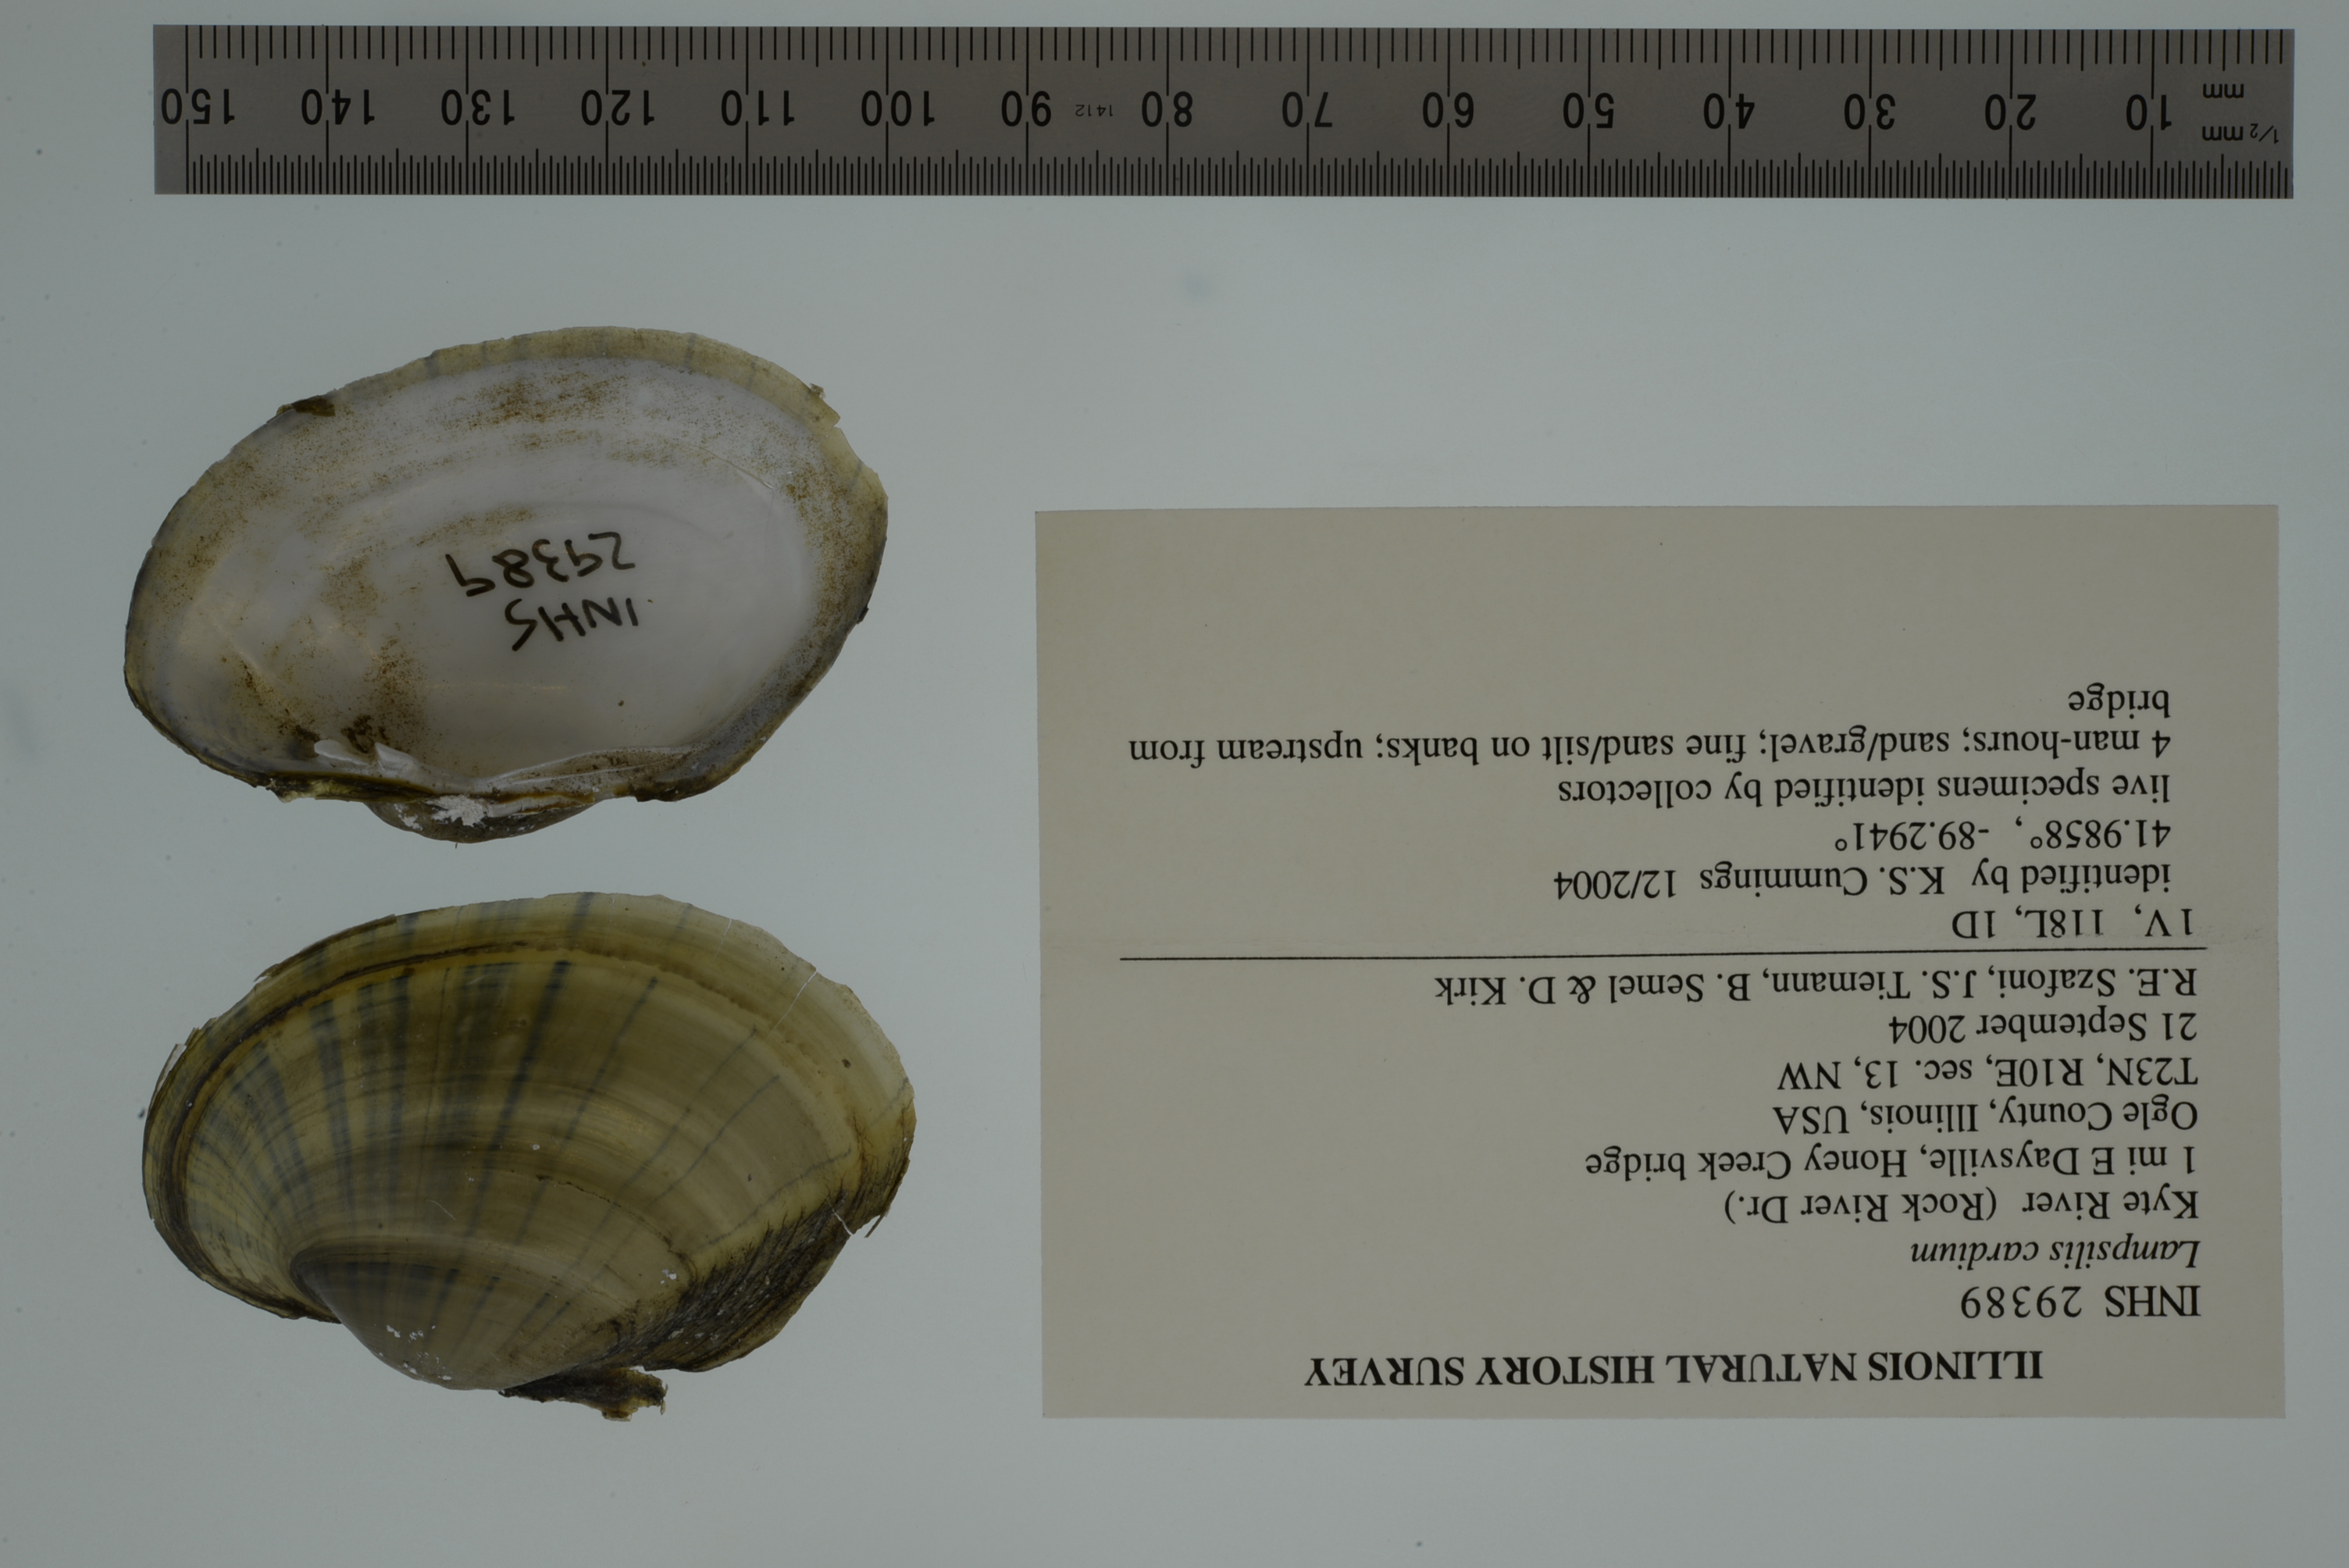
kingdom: Animalia
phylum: Mollusca
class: Bivalvia
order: Unionida
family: Unionidae
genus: Lampsilis
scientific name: Lampsilis cardium
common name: Plain pocketbook
